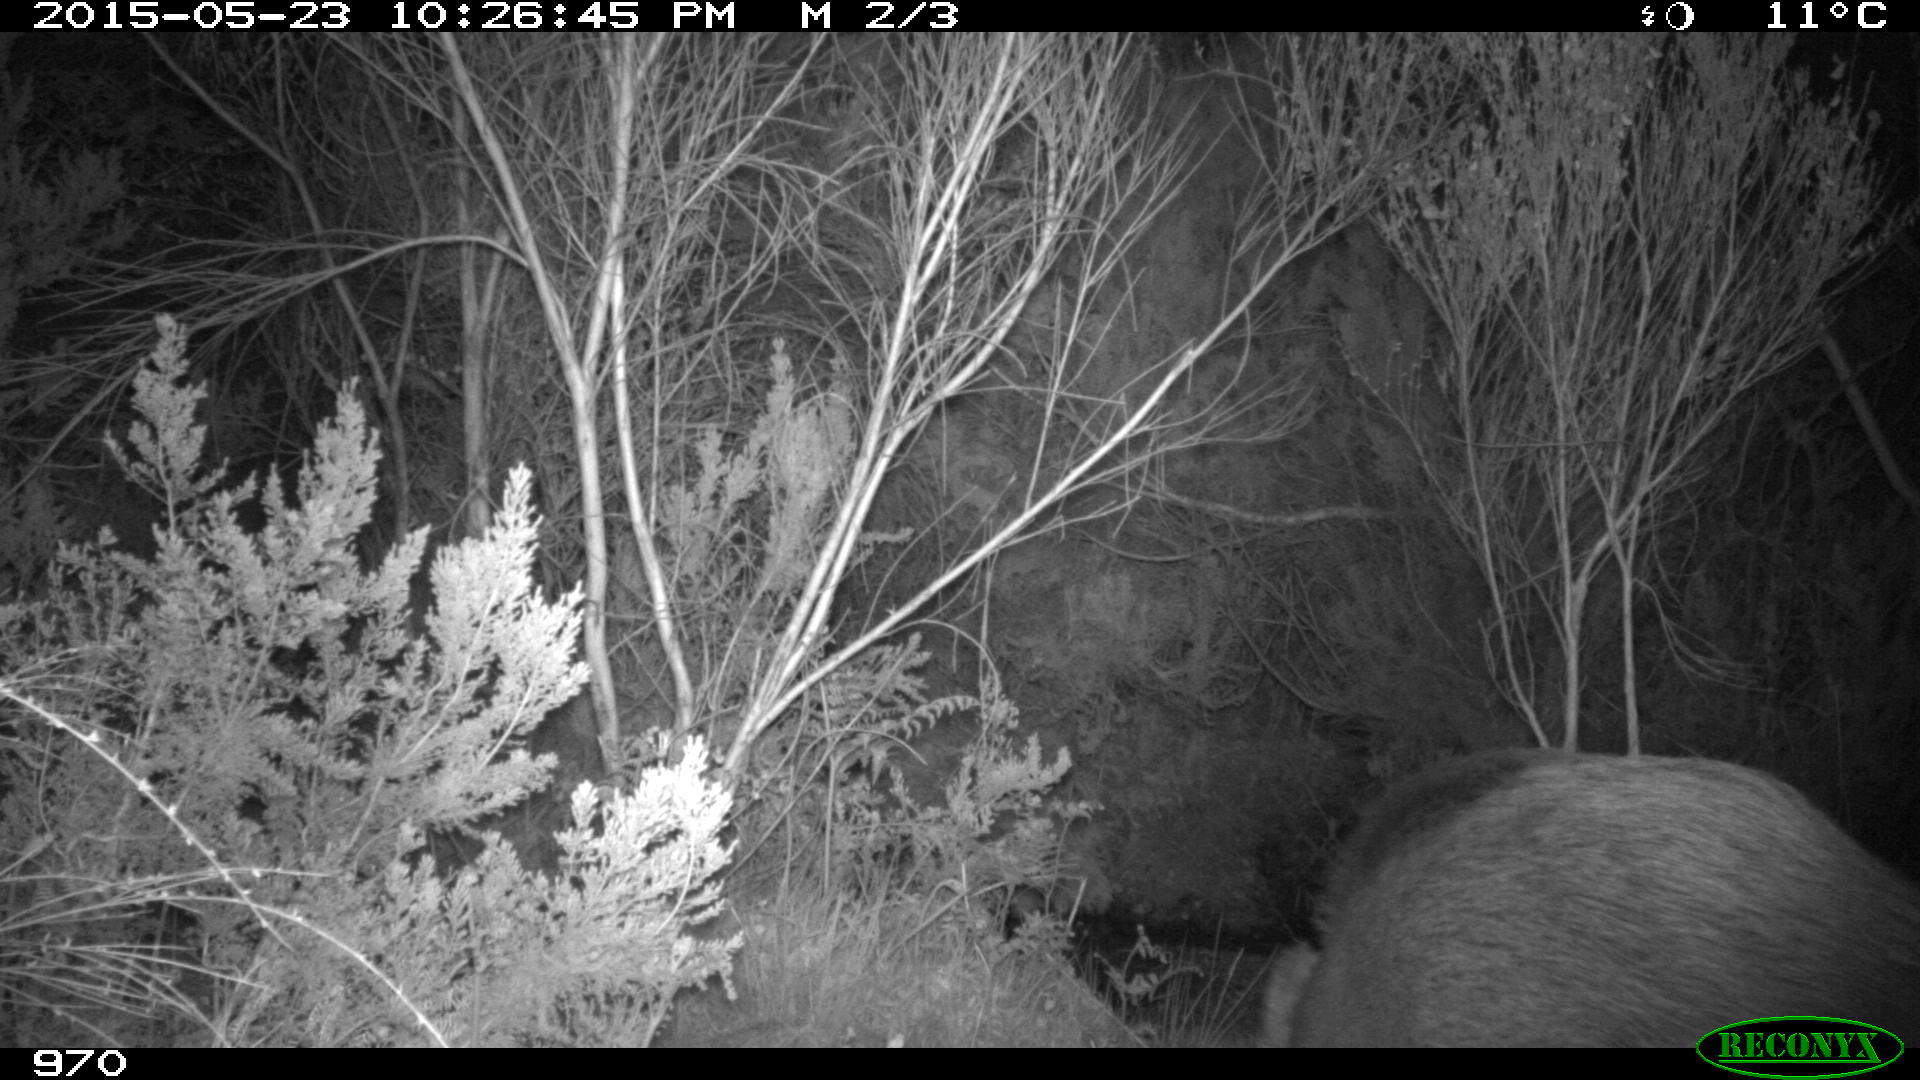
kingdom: Animalia
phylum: Chordata
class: Mammalia
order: Artiodactyla
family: Cervidae
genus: Capreolus
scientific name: Capreolus capreolus
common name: Western roe deer
